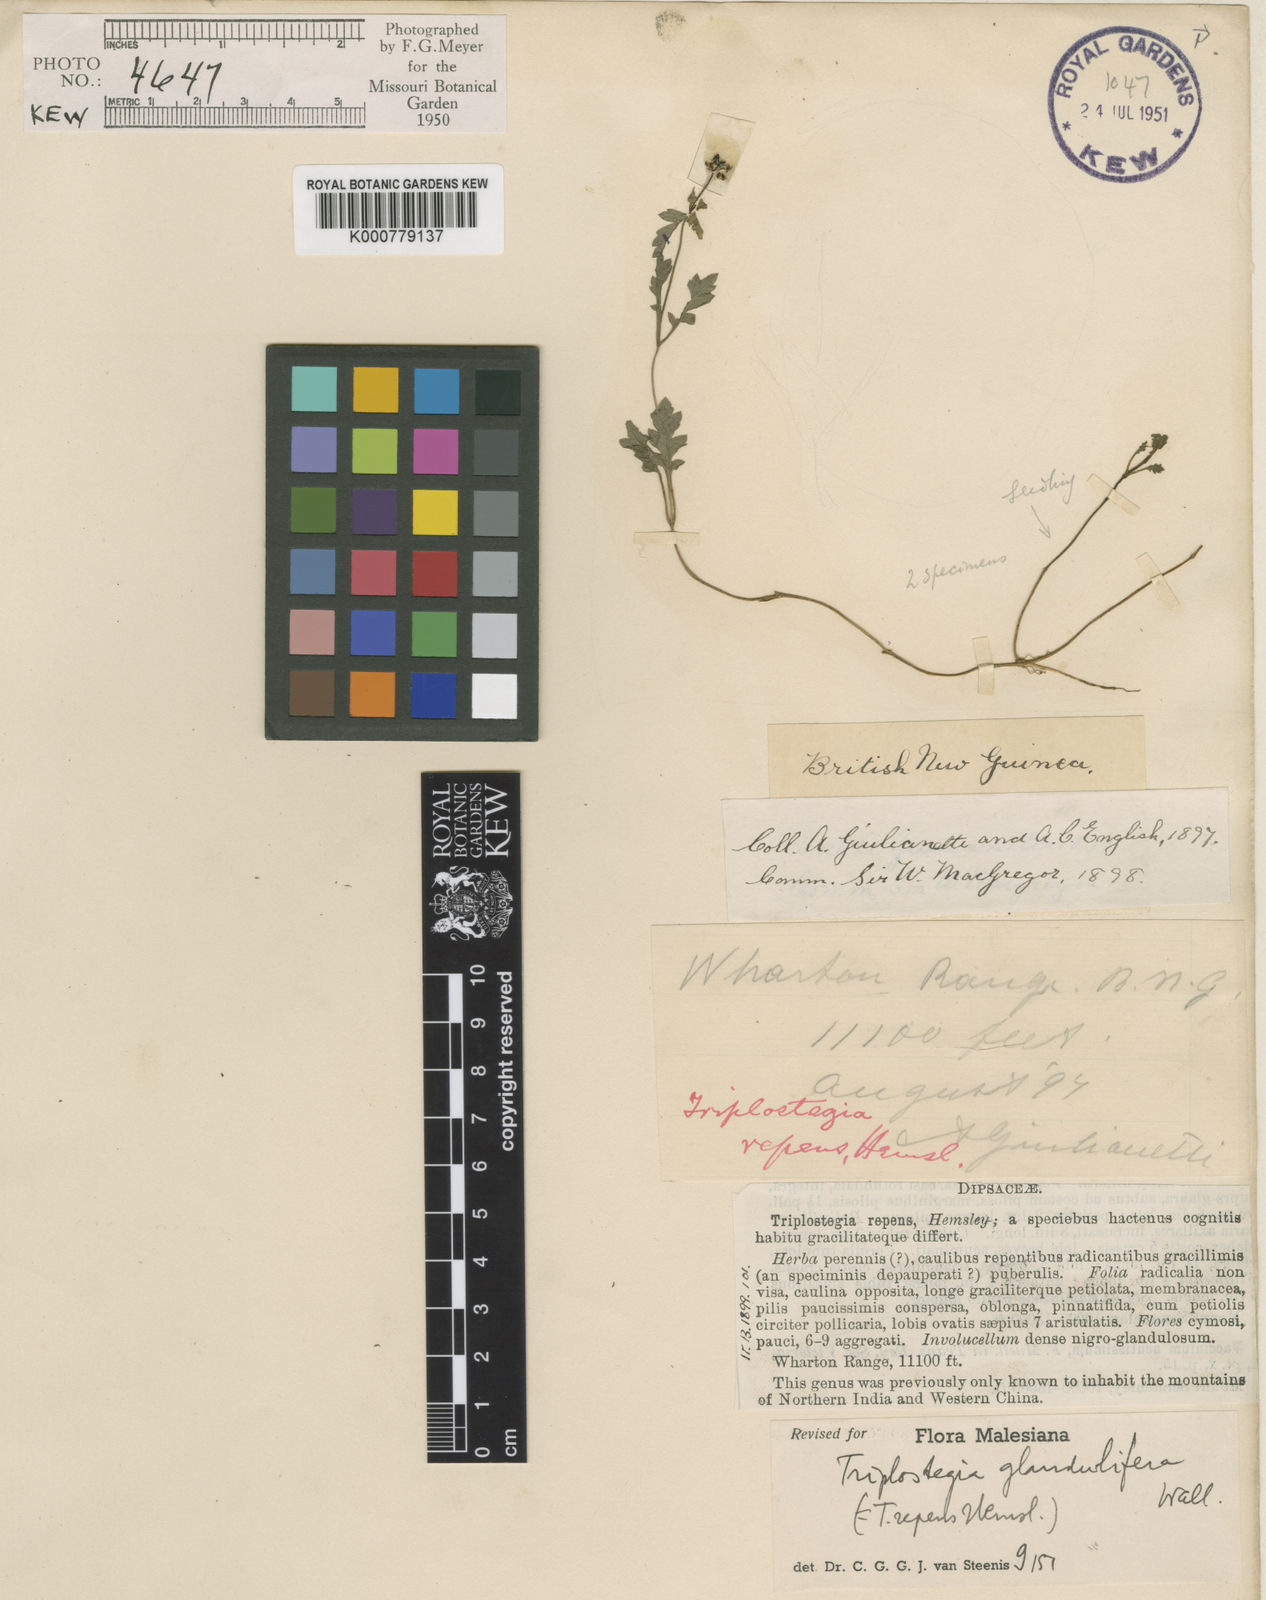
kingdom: Plantae
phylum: Tracheophyta
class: Magnoliopsida
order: Dipsacales
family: Caprifoliaceae
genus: Triplostegia
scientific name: Triplostegia glandulifera
